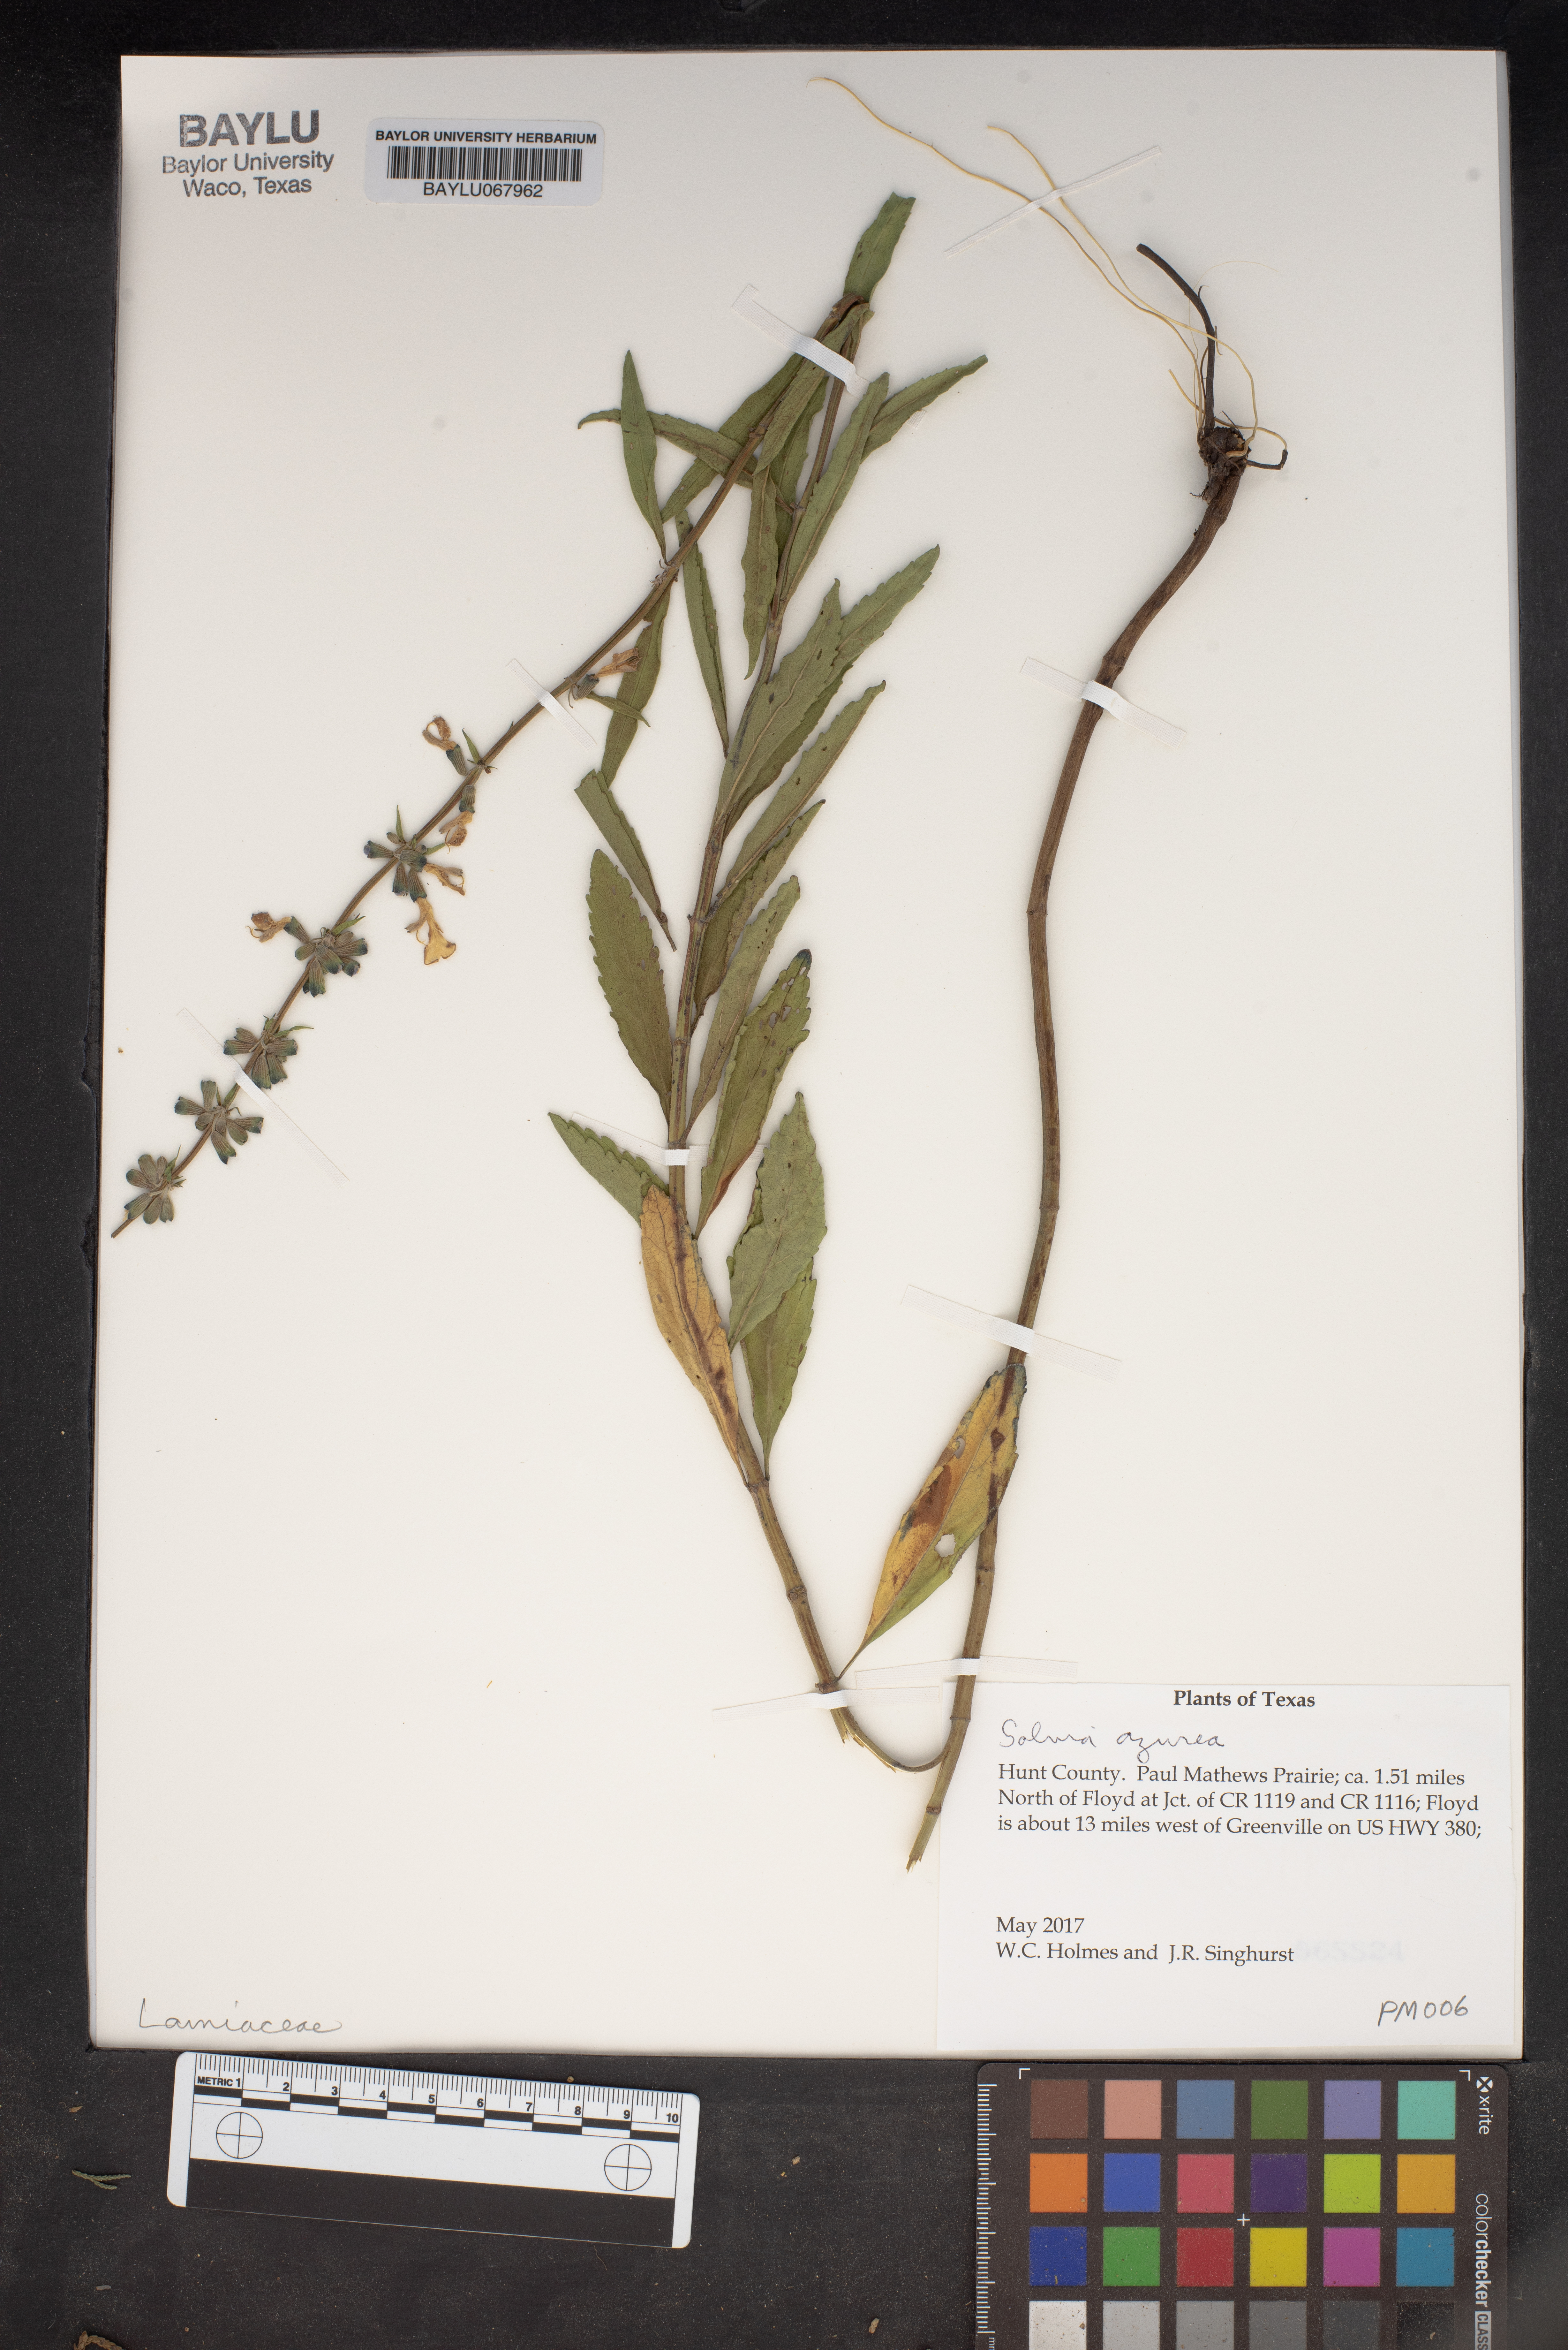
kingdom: Plantae
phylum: Tracheophyta
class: Magnoliopsida
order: Lamiales
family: Lamiaceae
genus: Salvia
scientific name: Salvia azurea
